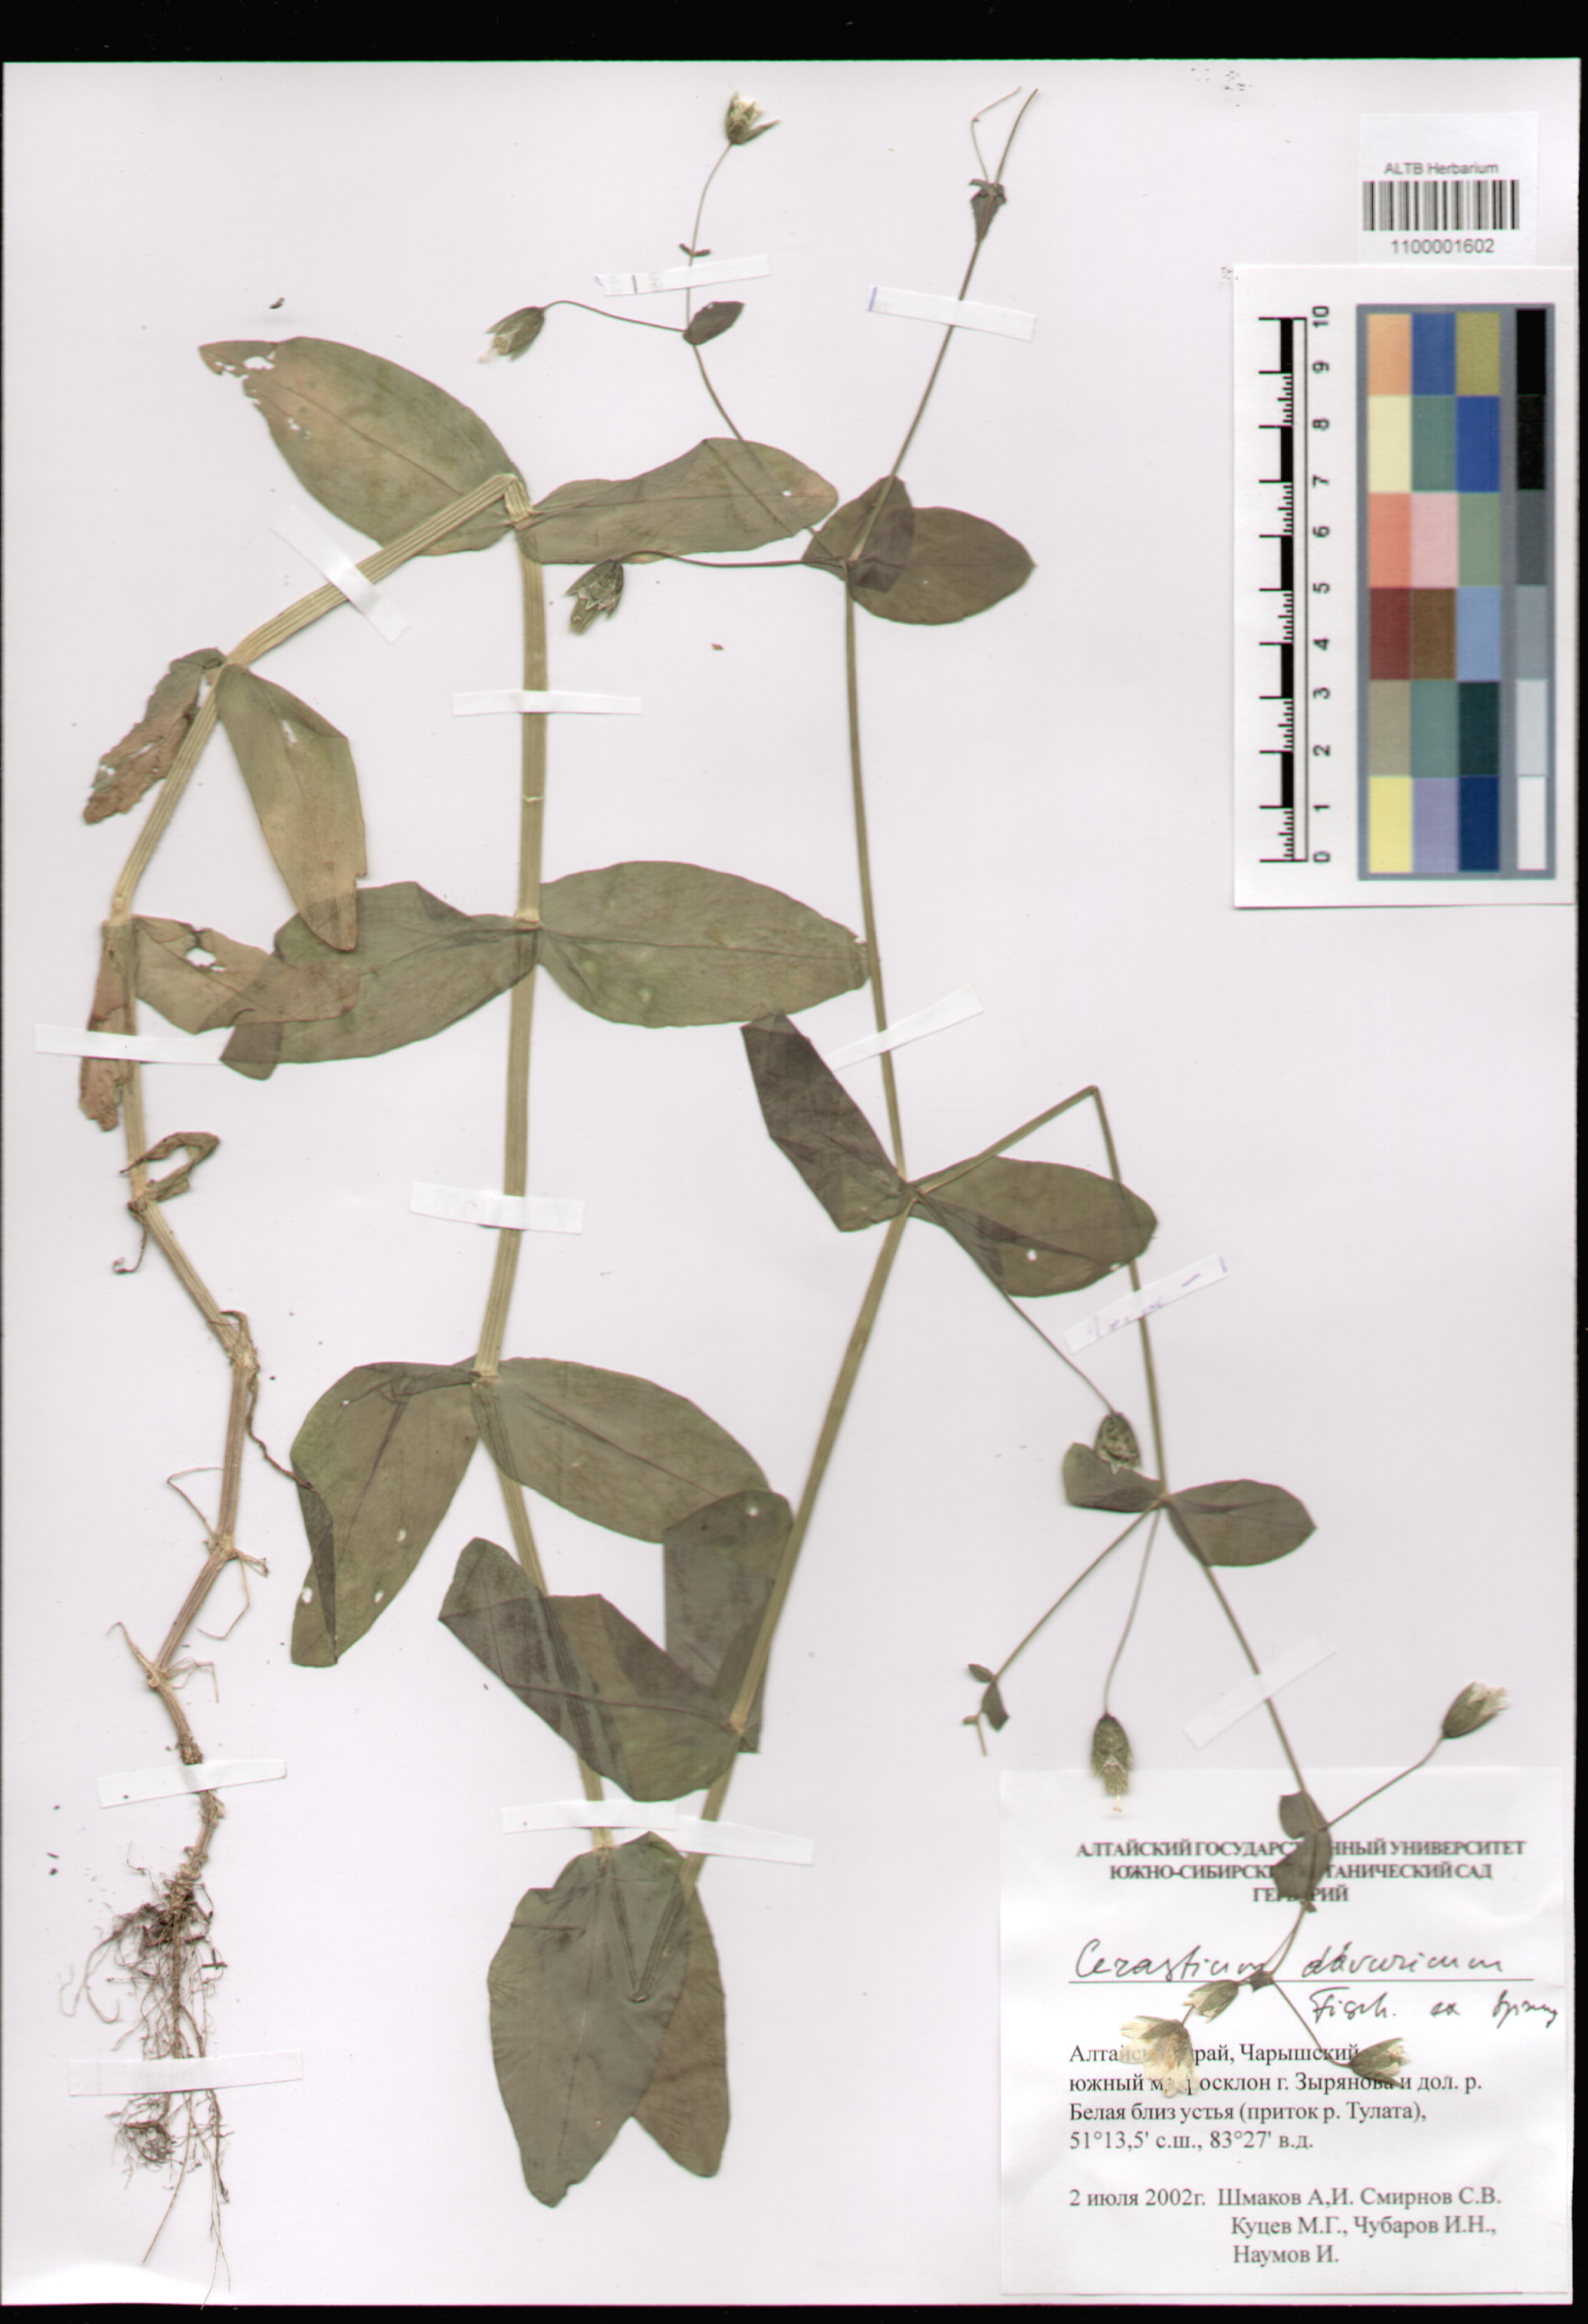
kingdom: Plantae
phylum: Tracheophyta
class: Magnoliopsida
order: Caryophyllales
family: Caryophyllaceae
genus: Dichodon
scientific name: Dichodon davuricum
